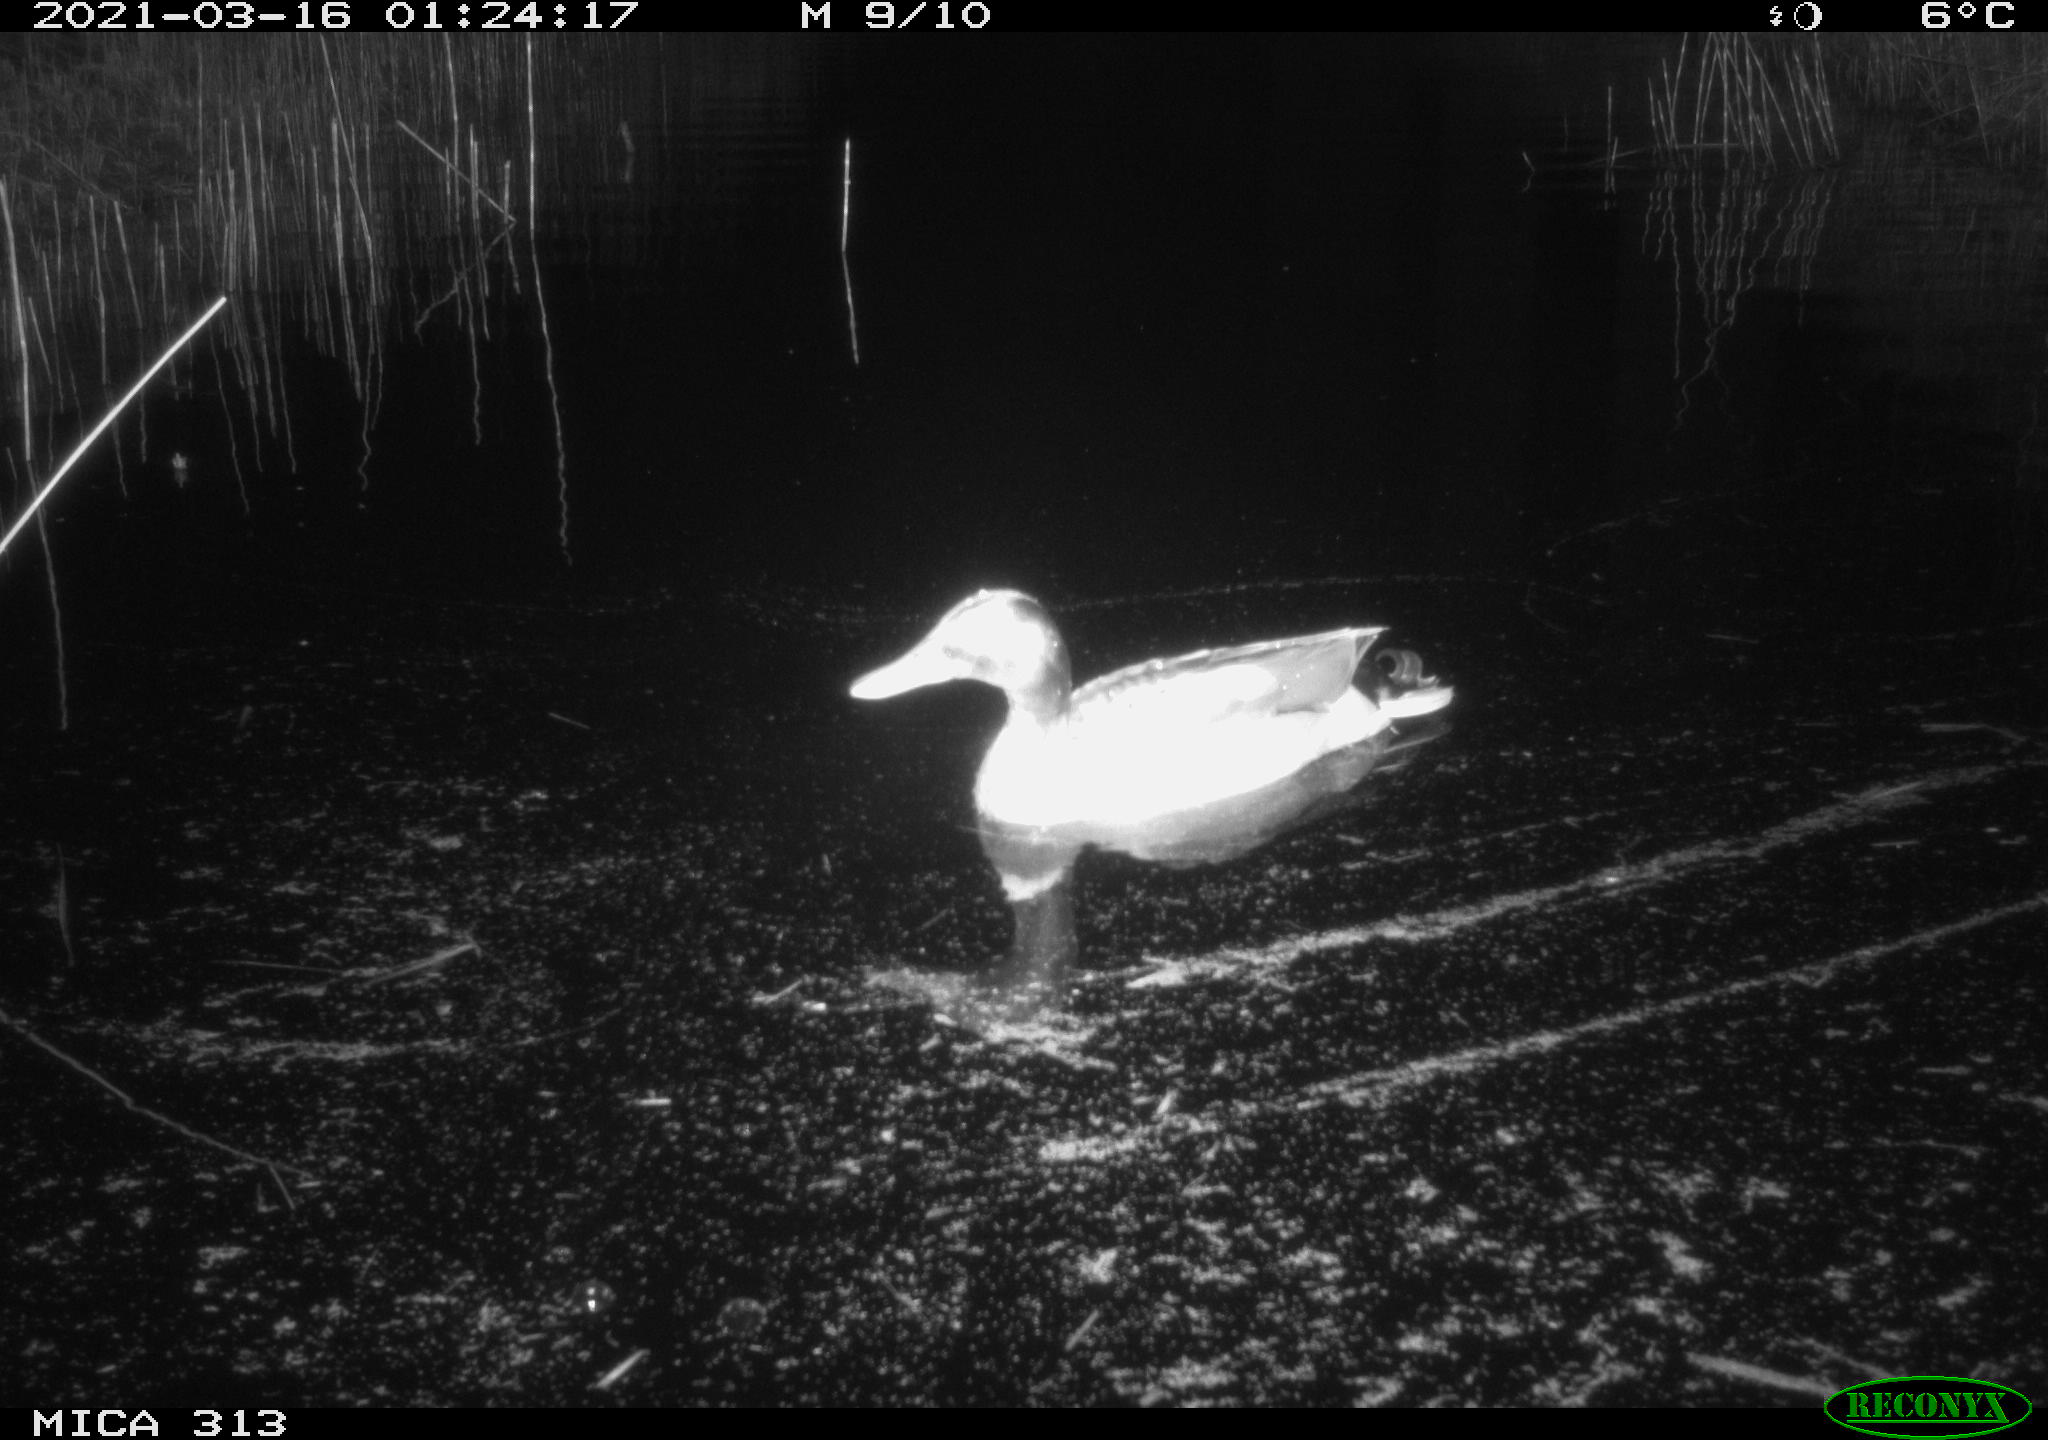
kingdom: Animalia
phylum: Chordata
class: Aves
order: Anseriformes
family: Anatidae
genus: Anas
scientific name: Anas platyrhynchos
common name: Mallard
